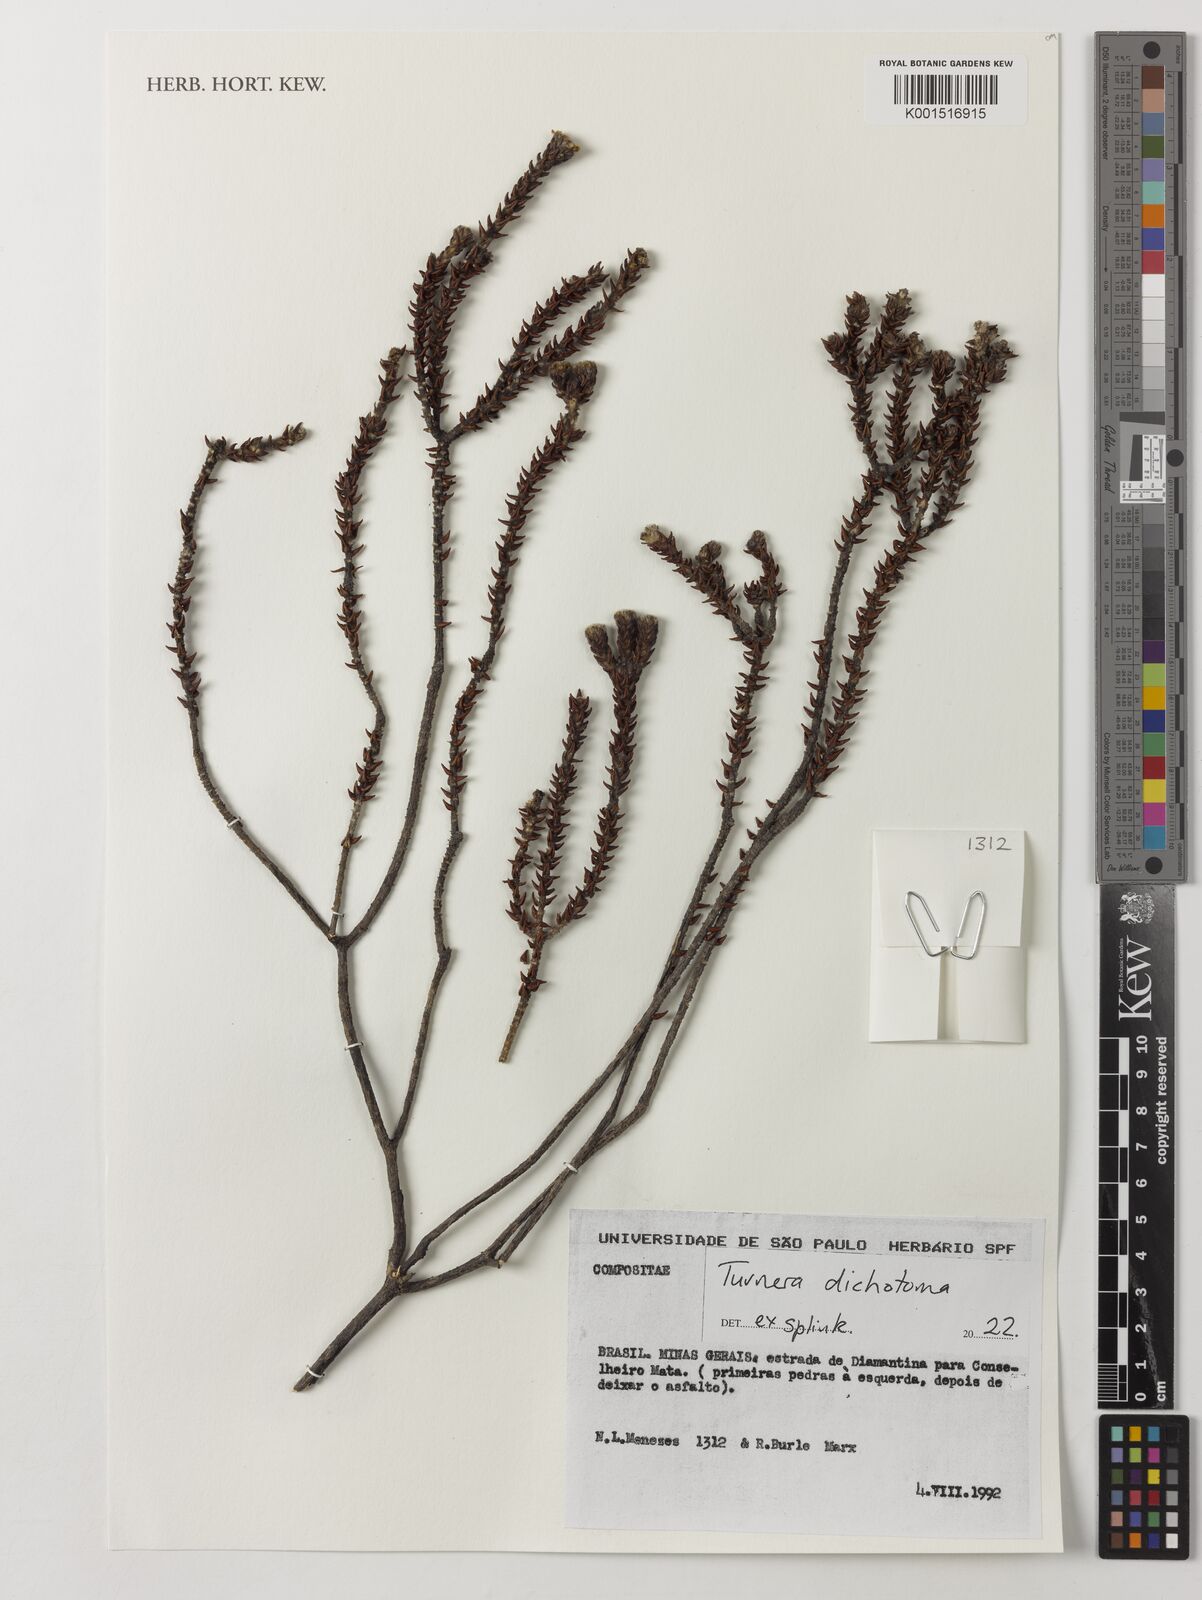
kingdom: Plantae
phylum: Tracheophyta
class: Magnoliopsida
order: Malpighiales
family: Turneraceae
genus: Turnera
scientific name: Turnera dichotoma
